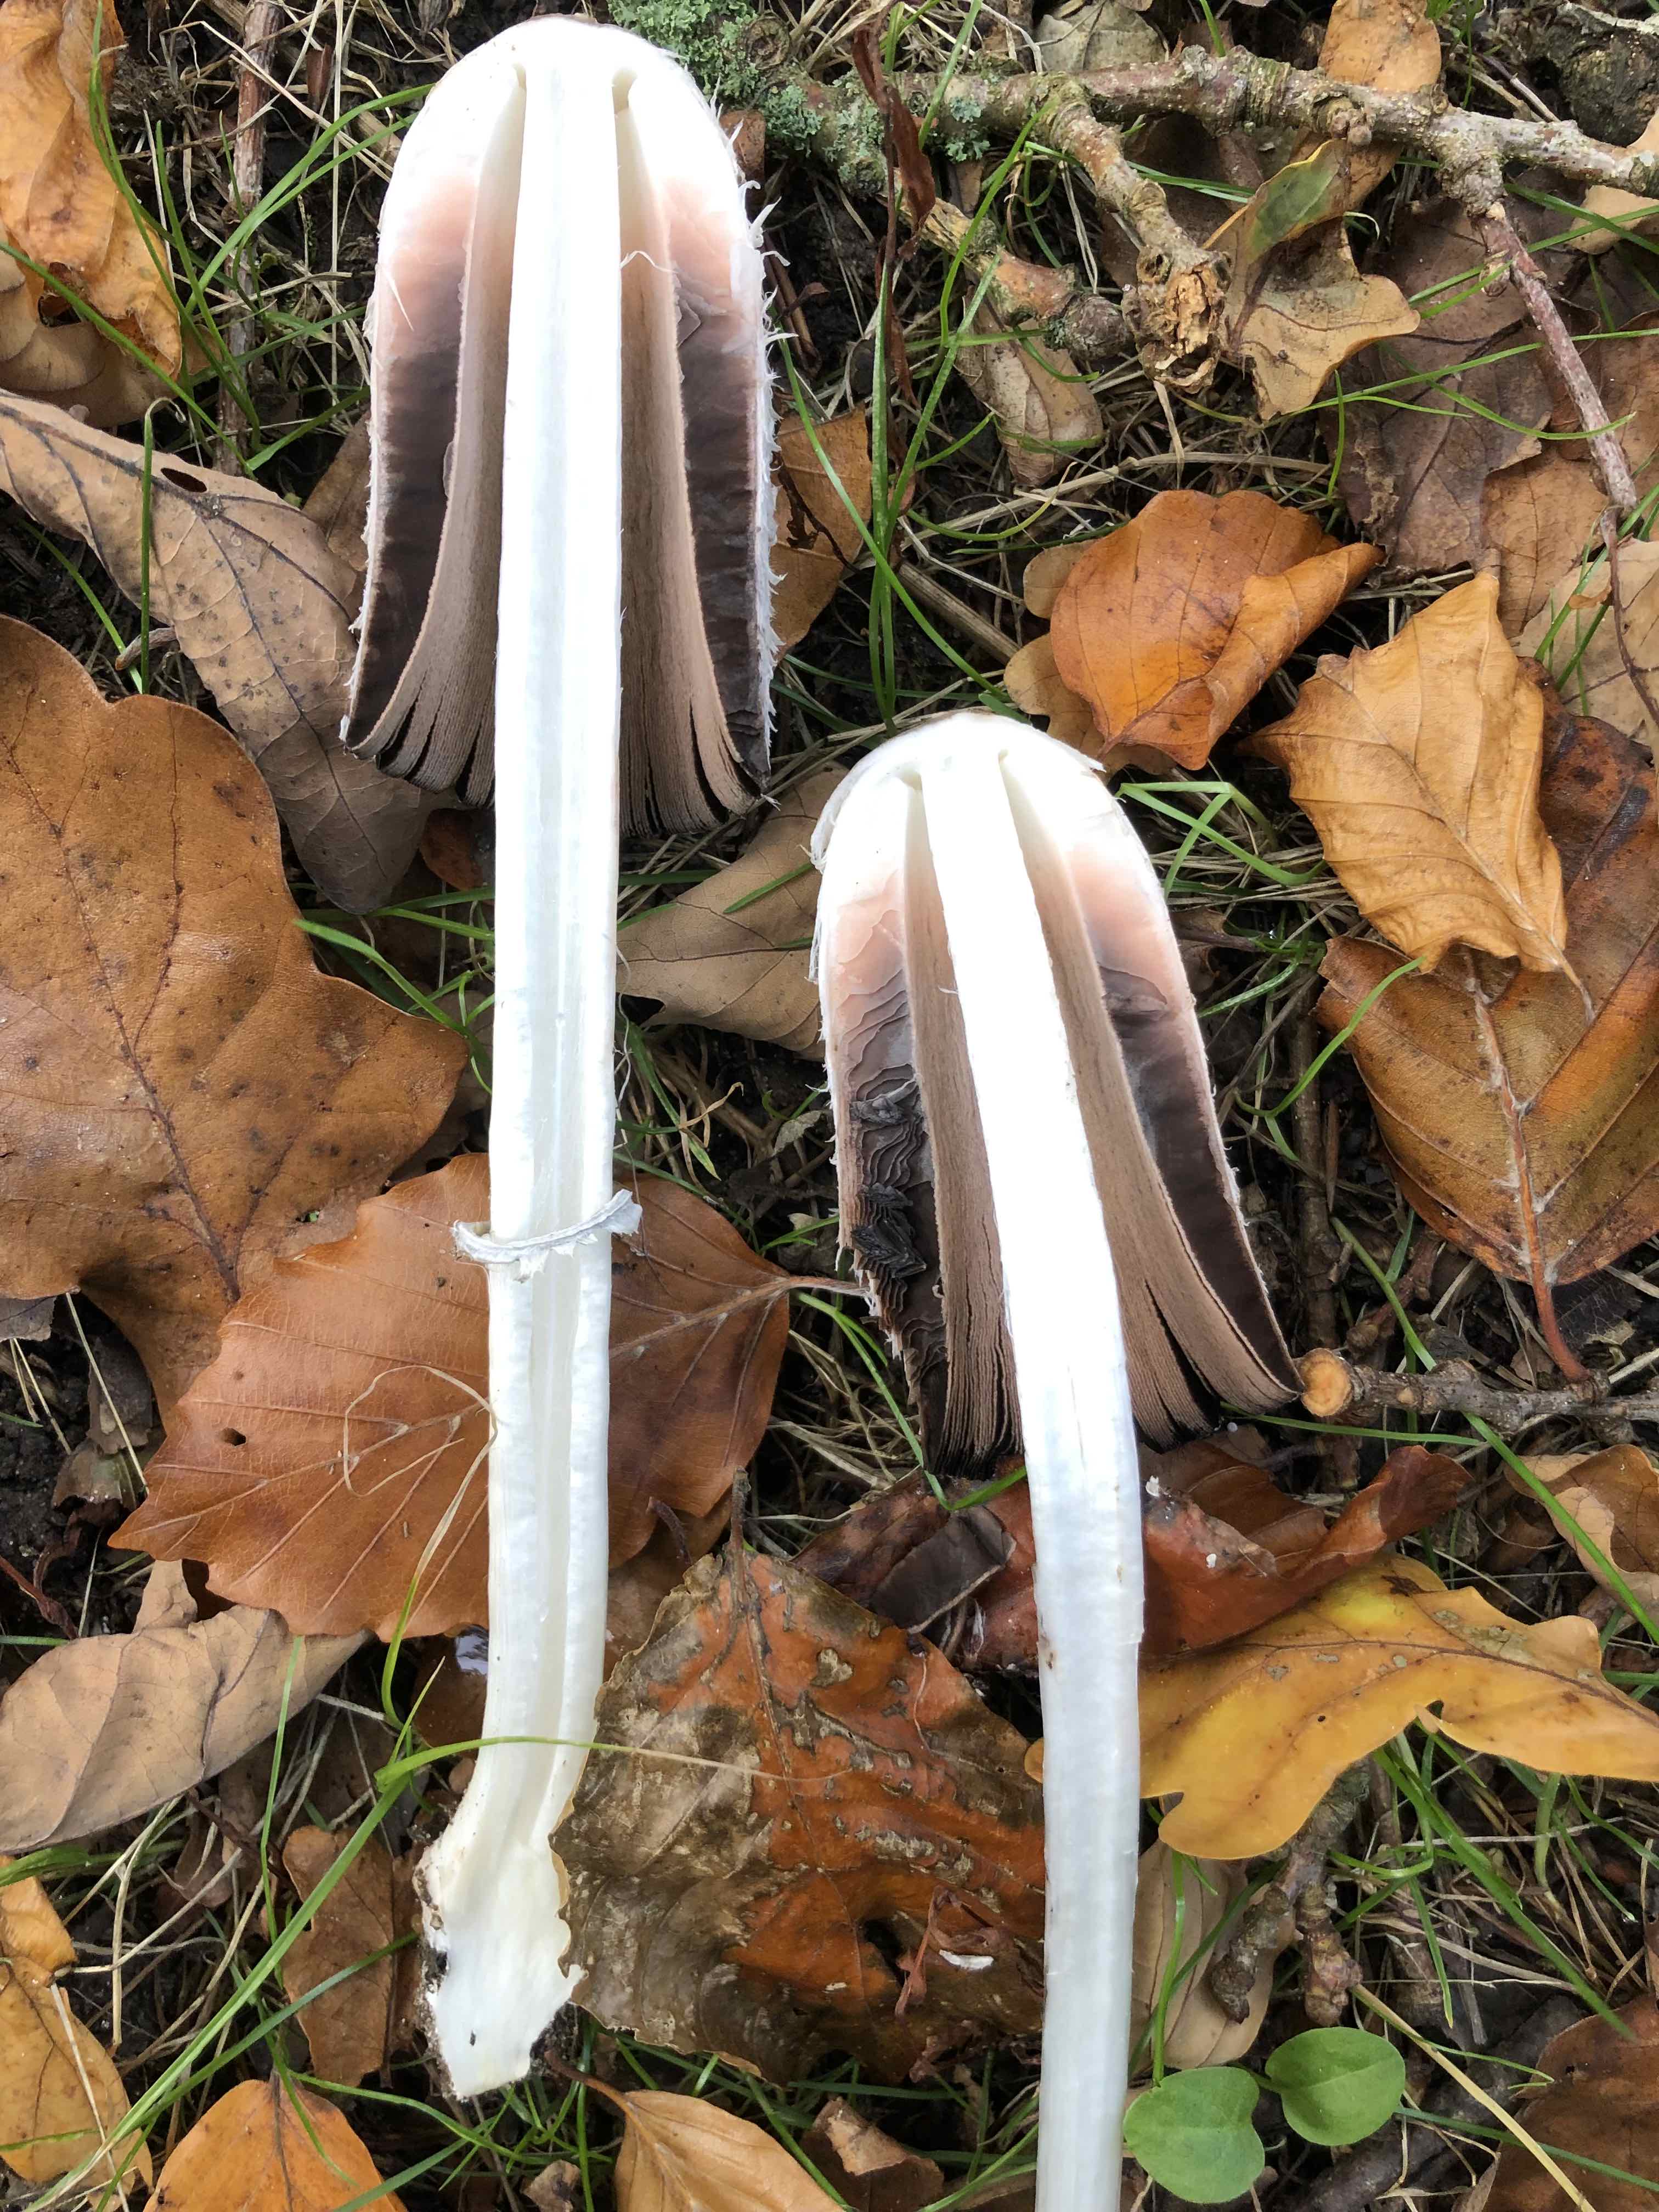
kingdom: Fungi
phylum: Basidiomycota
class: Agaricomycetes
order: Agaricales
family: Agaricaceae
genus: Coprinus
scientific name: Coprinus comatus
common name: stor parykhat
